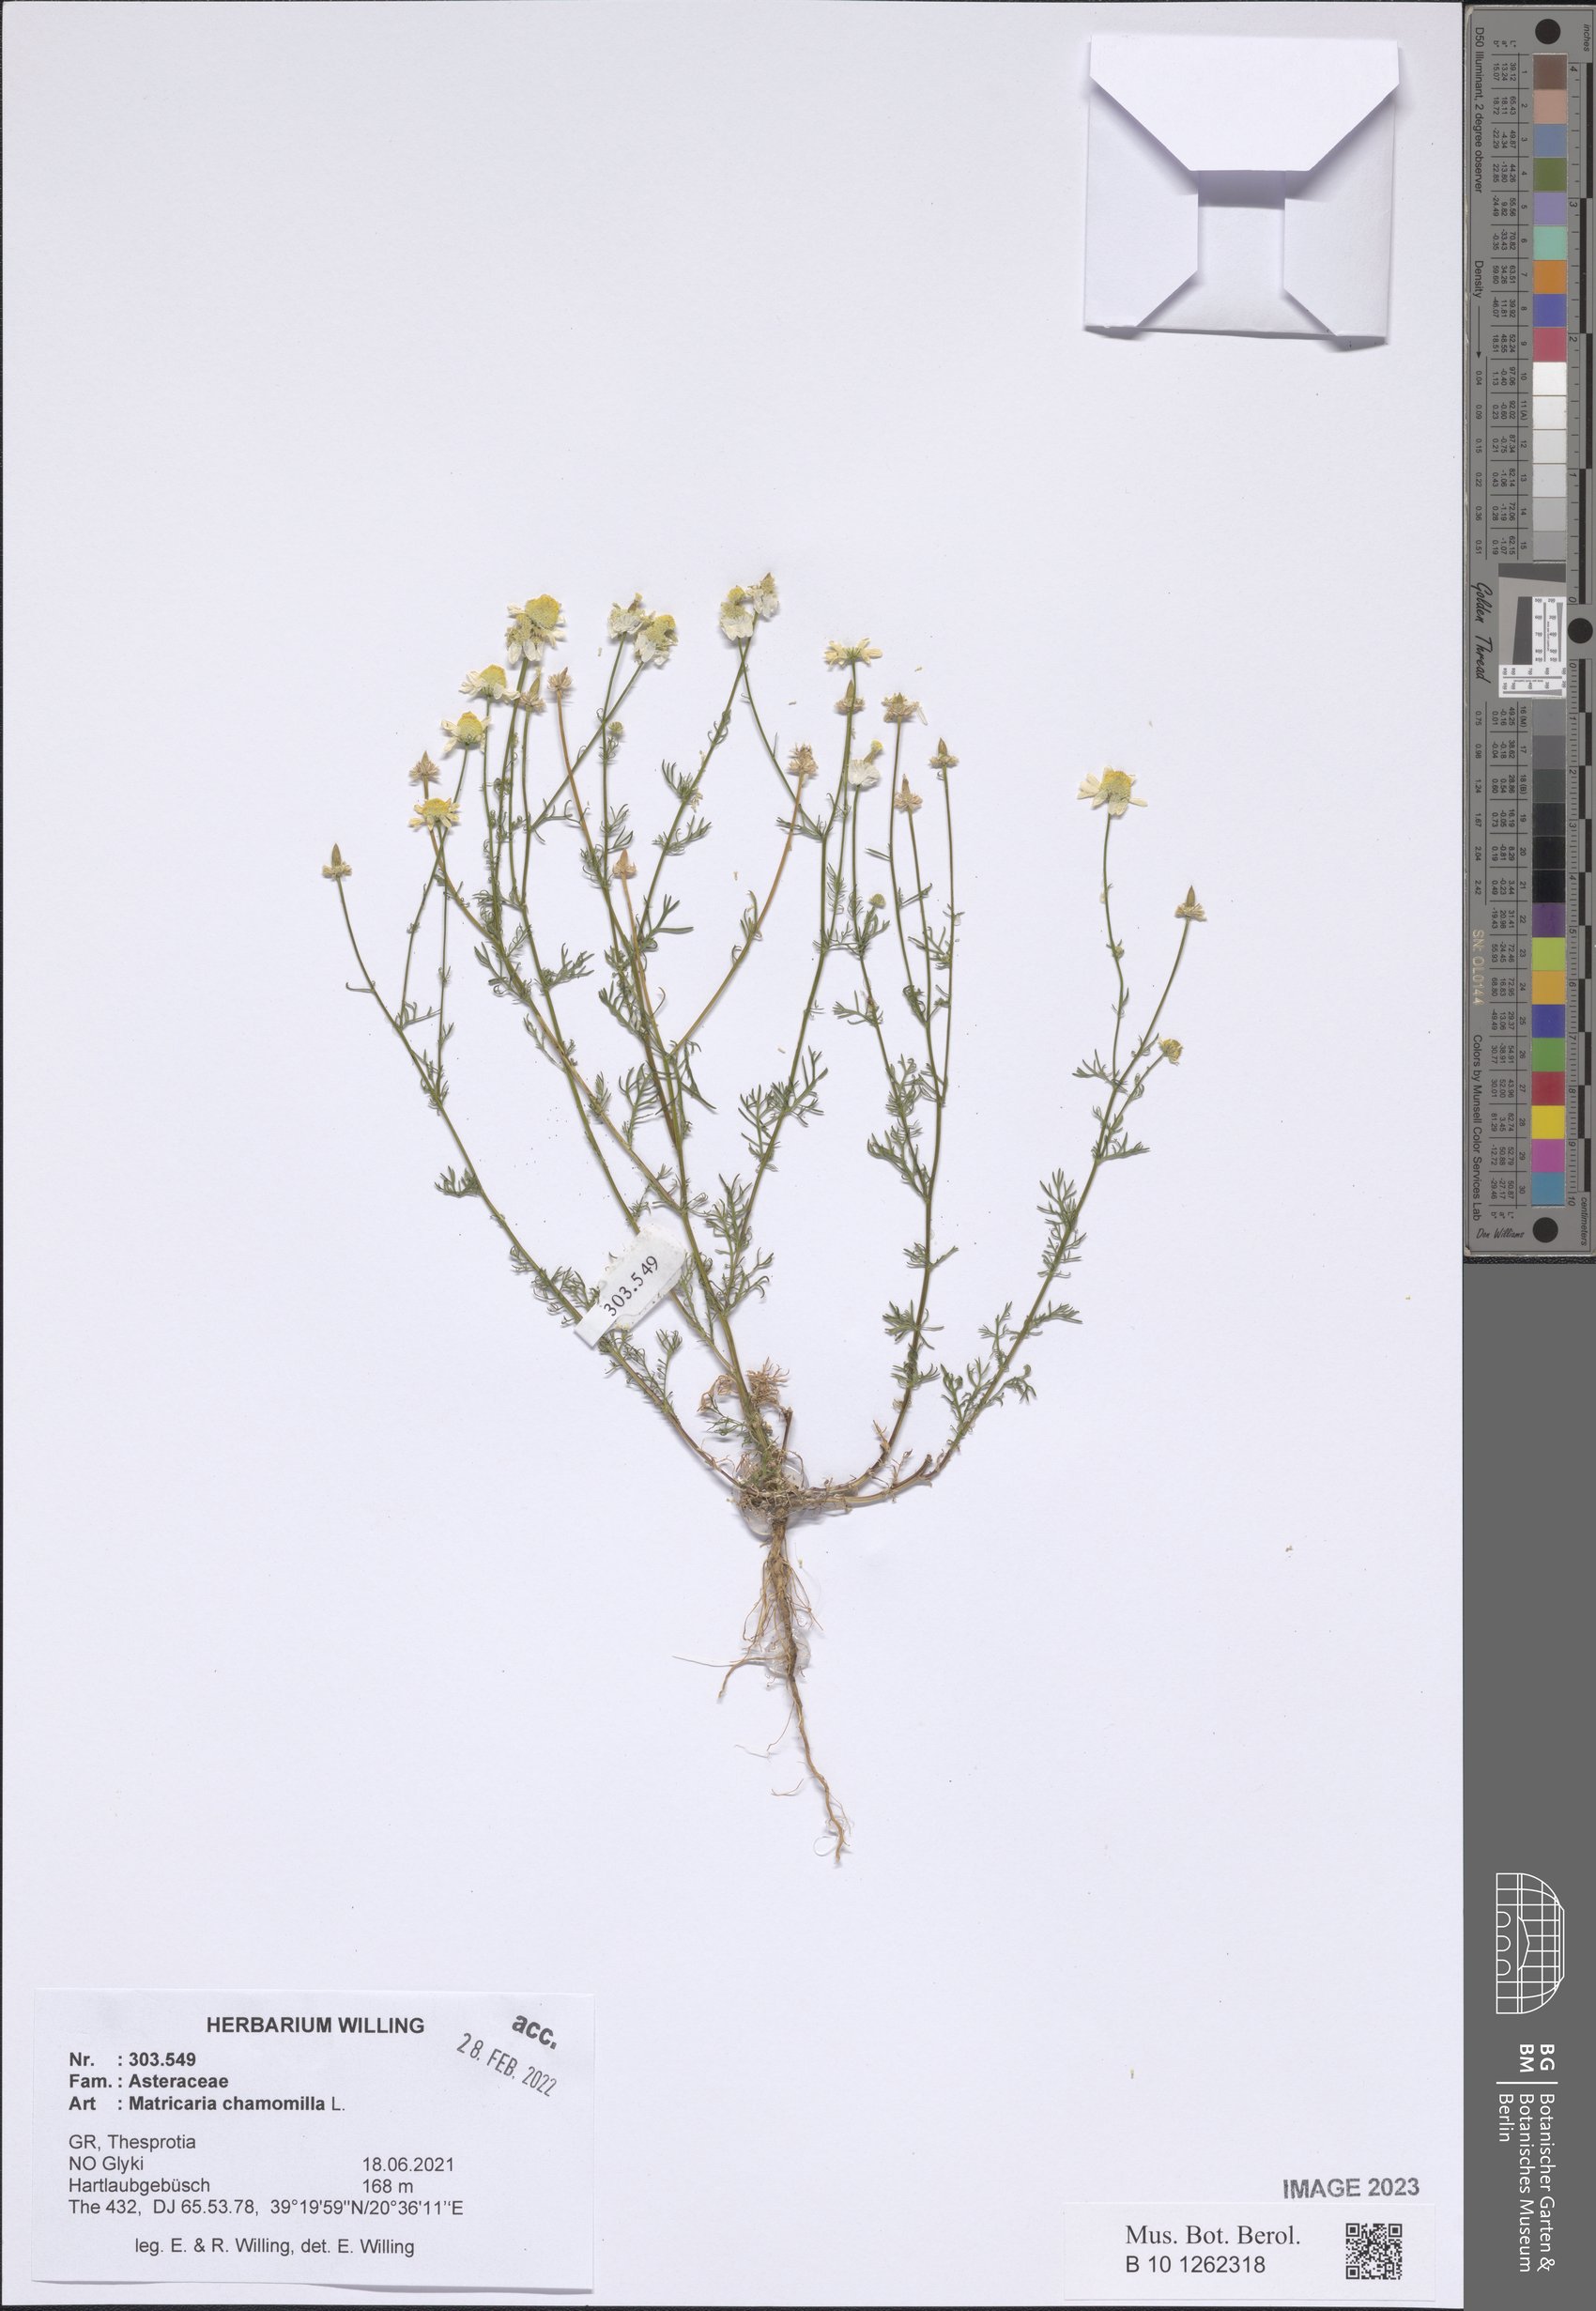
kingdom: Plantae
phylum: Tracheophyta
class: Magnoliopsida
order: Asterales
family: Asteraceae
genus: Matricaria
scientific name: Matricaria chamomilla
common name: Scented mayweed
